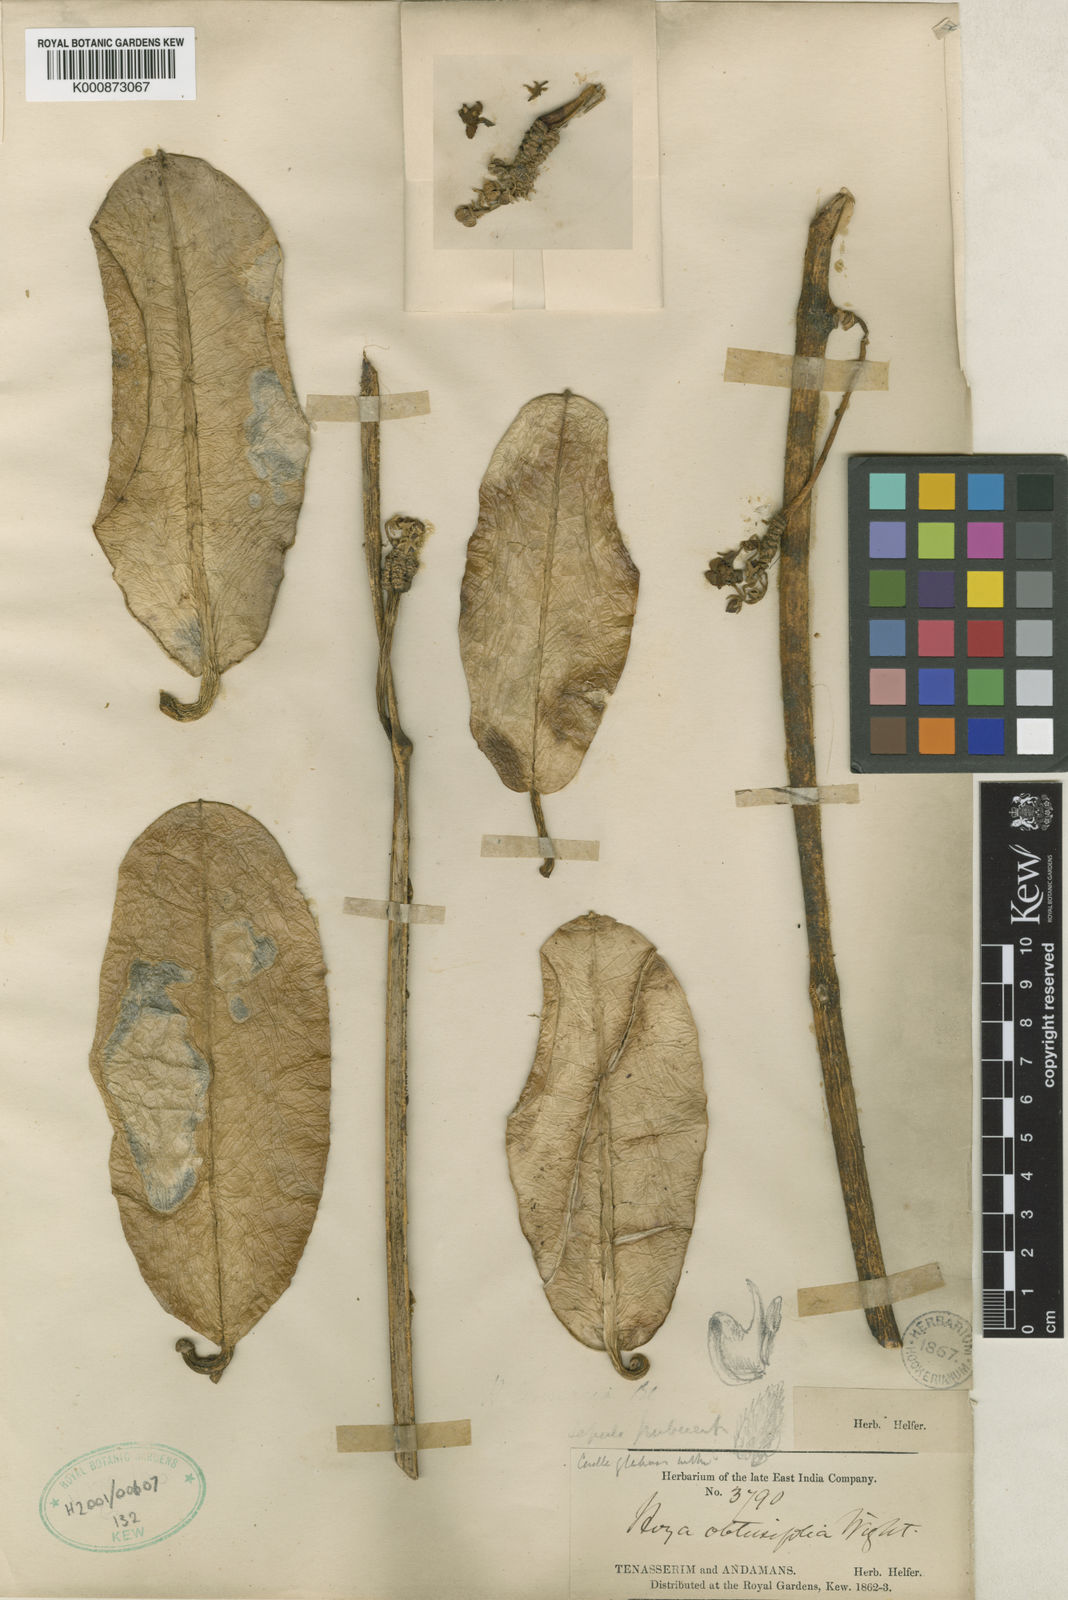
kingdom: Plantae
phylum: Tracheophyta
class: Magnoliopsida
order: Gentianales
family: Apocynaceae
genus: Hoya
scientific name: Hoya obtusifolia
